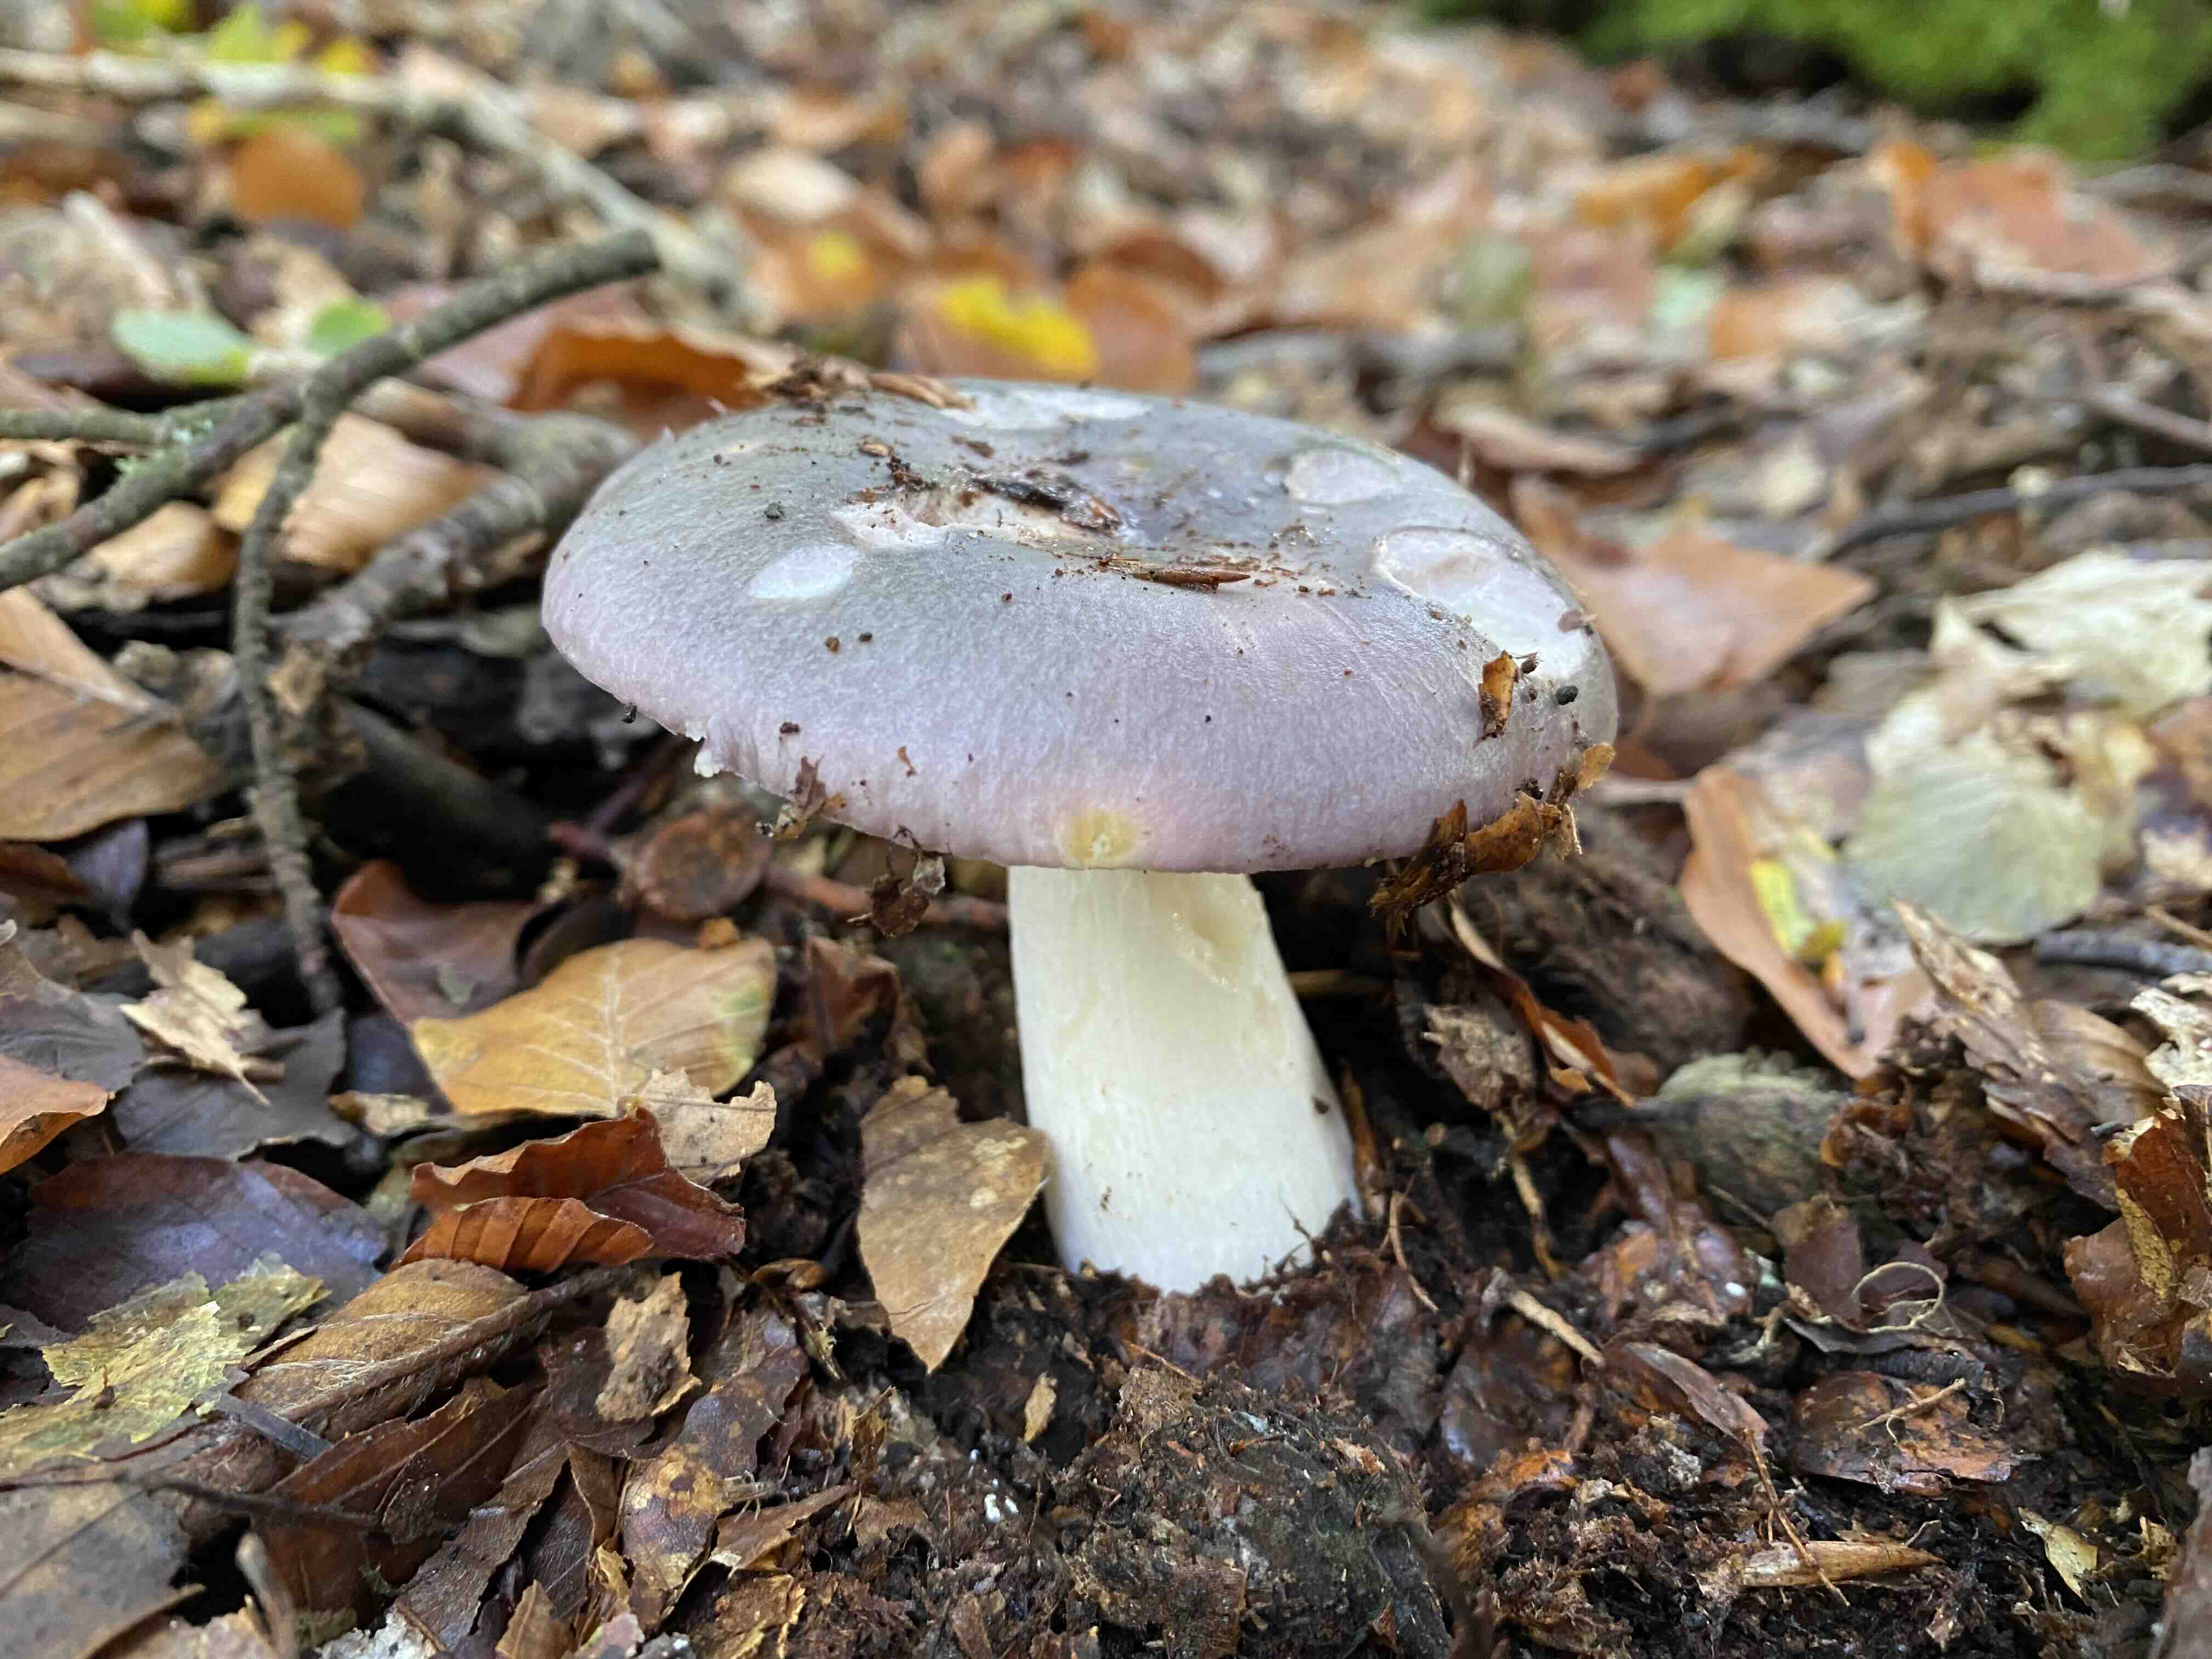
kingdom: Fungi
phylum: Basidiomycota
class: Agaricomycetes
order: Russulales
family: Russulaceae
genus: Russula
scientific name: Russula cyanoxantha
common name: broget skørhat
